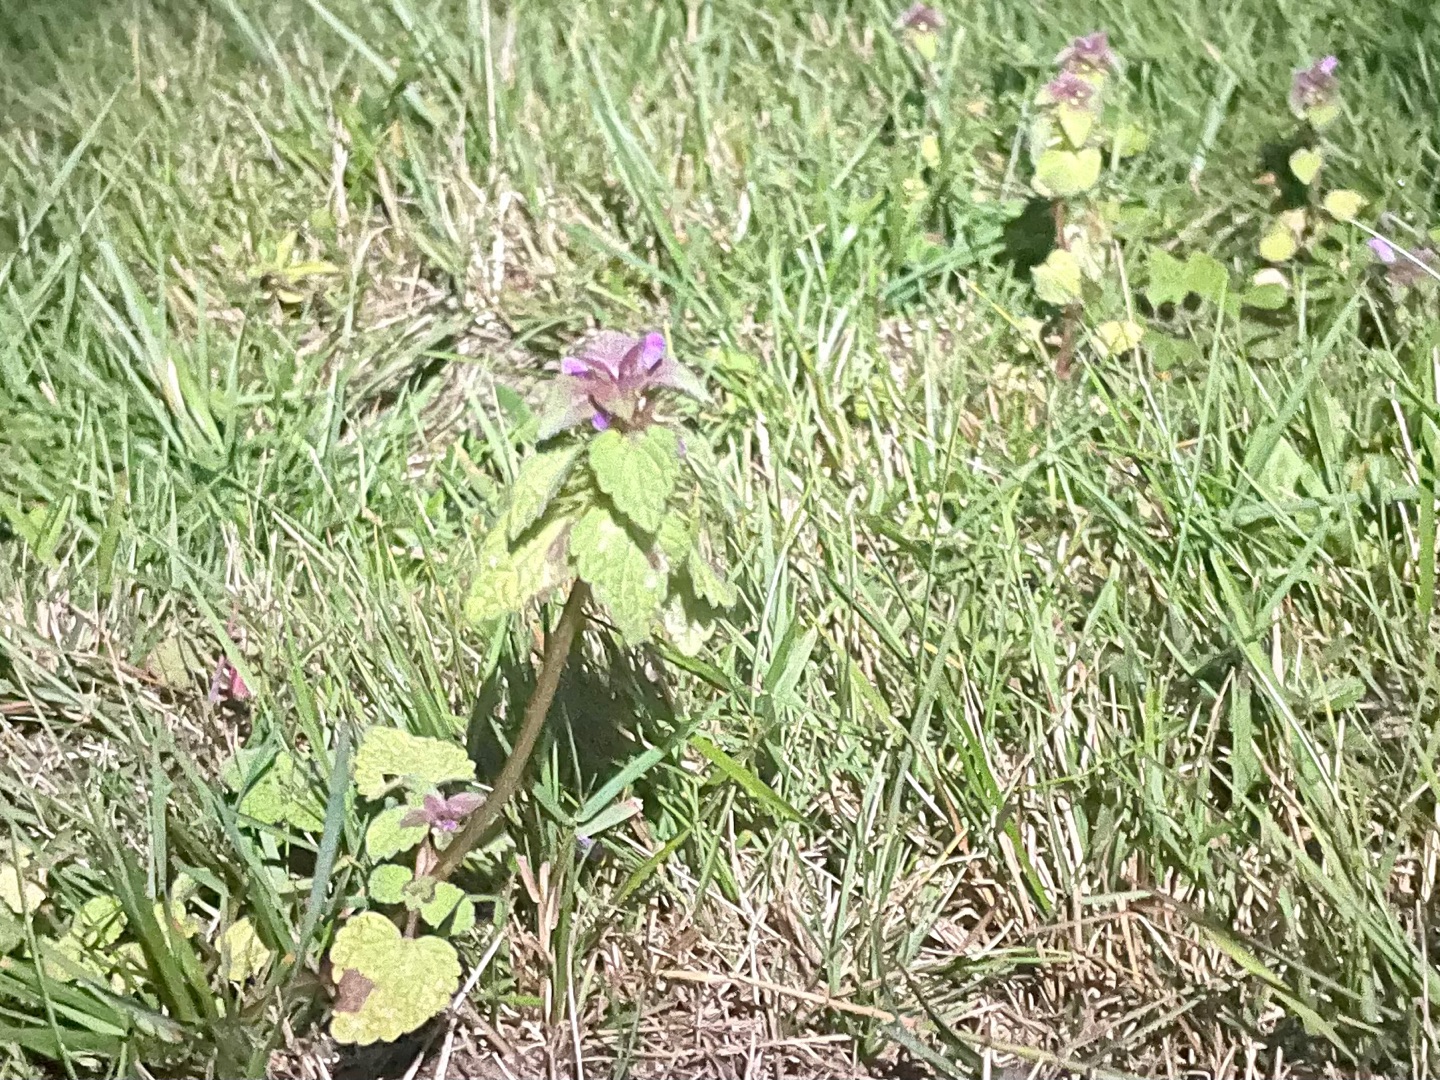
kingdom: Plantae
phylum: Tracheophyta
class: Magnoliopsida
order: Lamiales
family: Lamiaceae
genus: Lamium
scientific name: Lamium purpureum
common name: Rød tvetand
